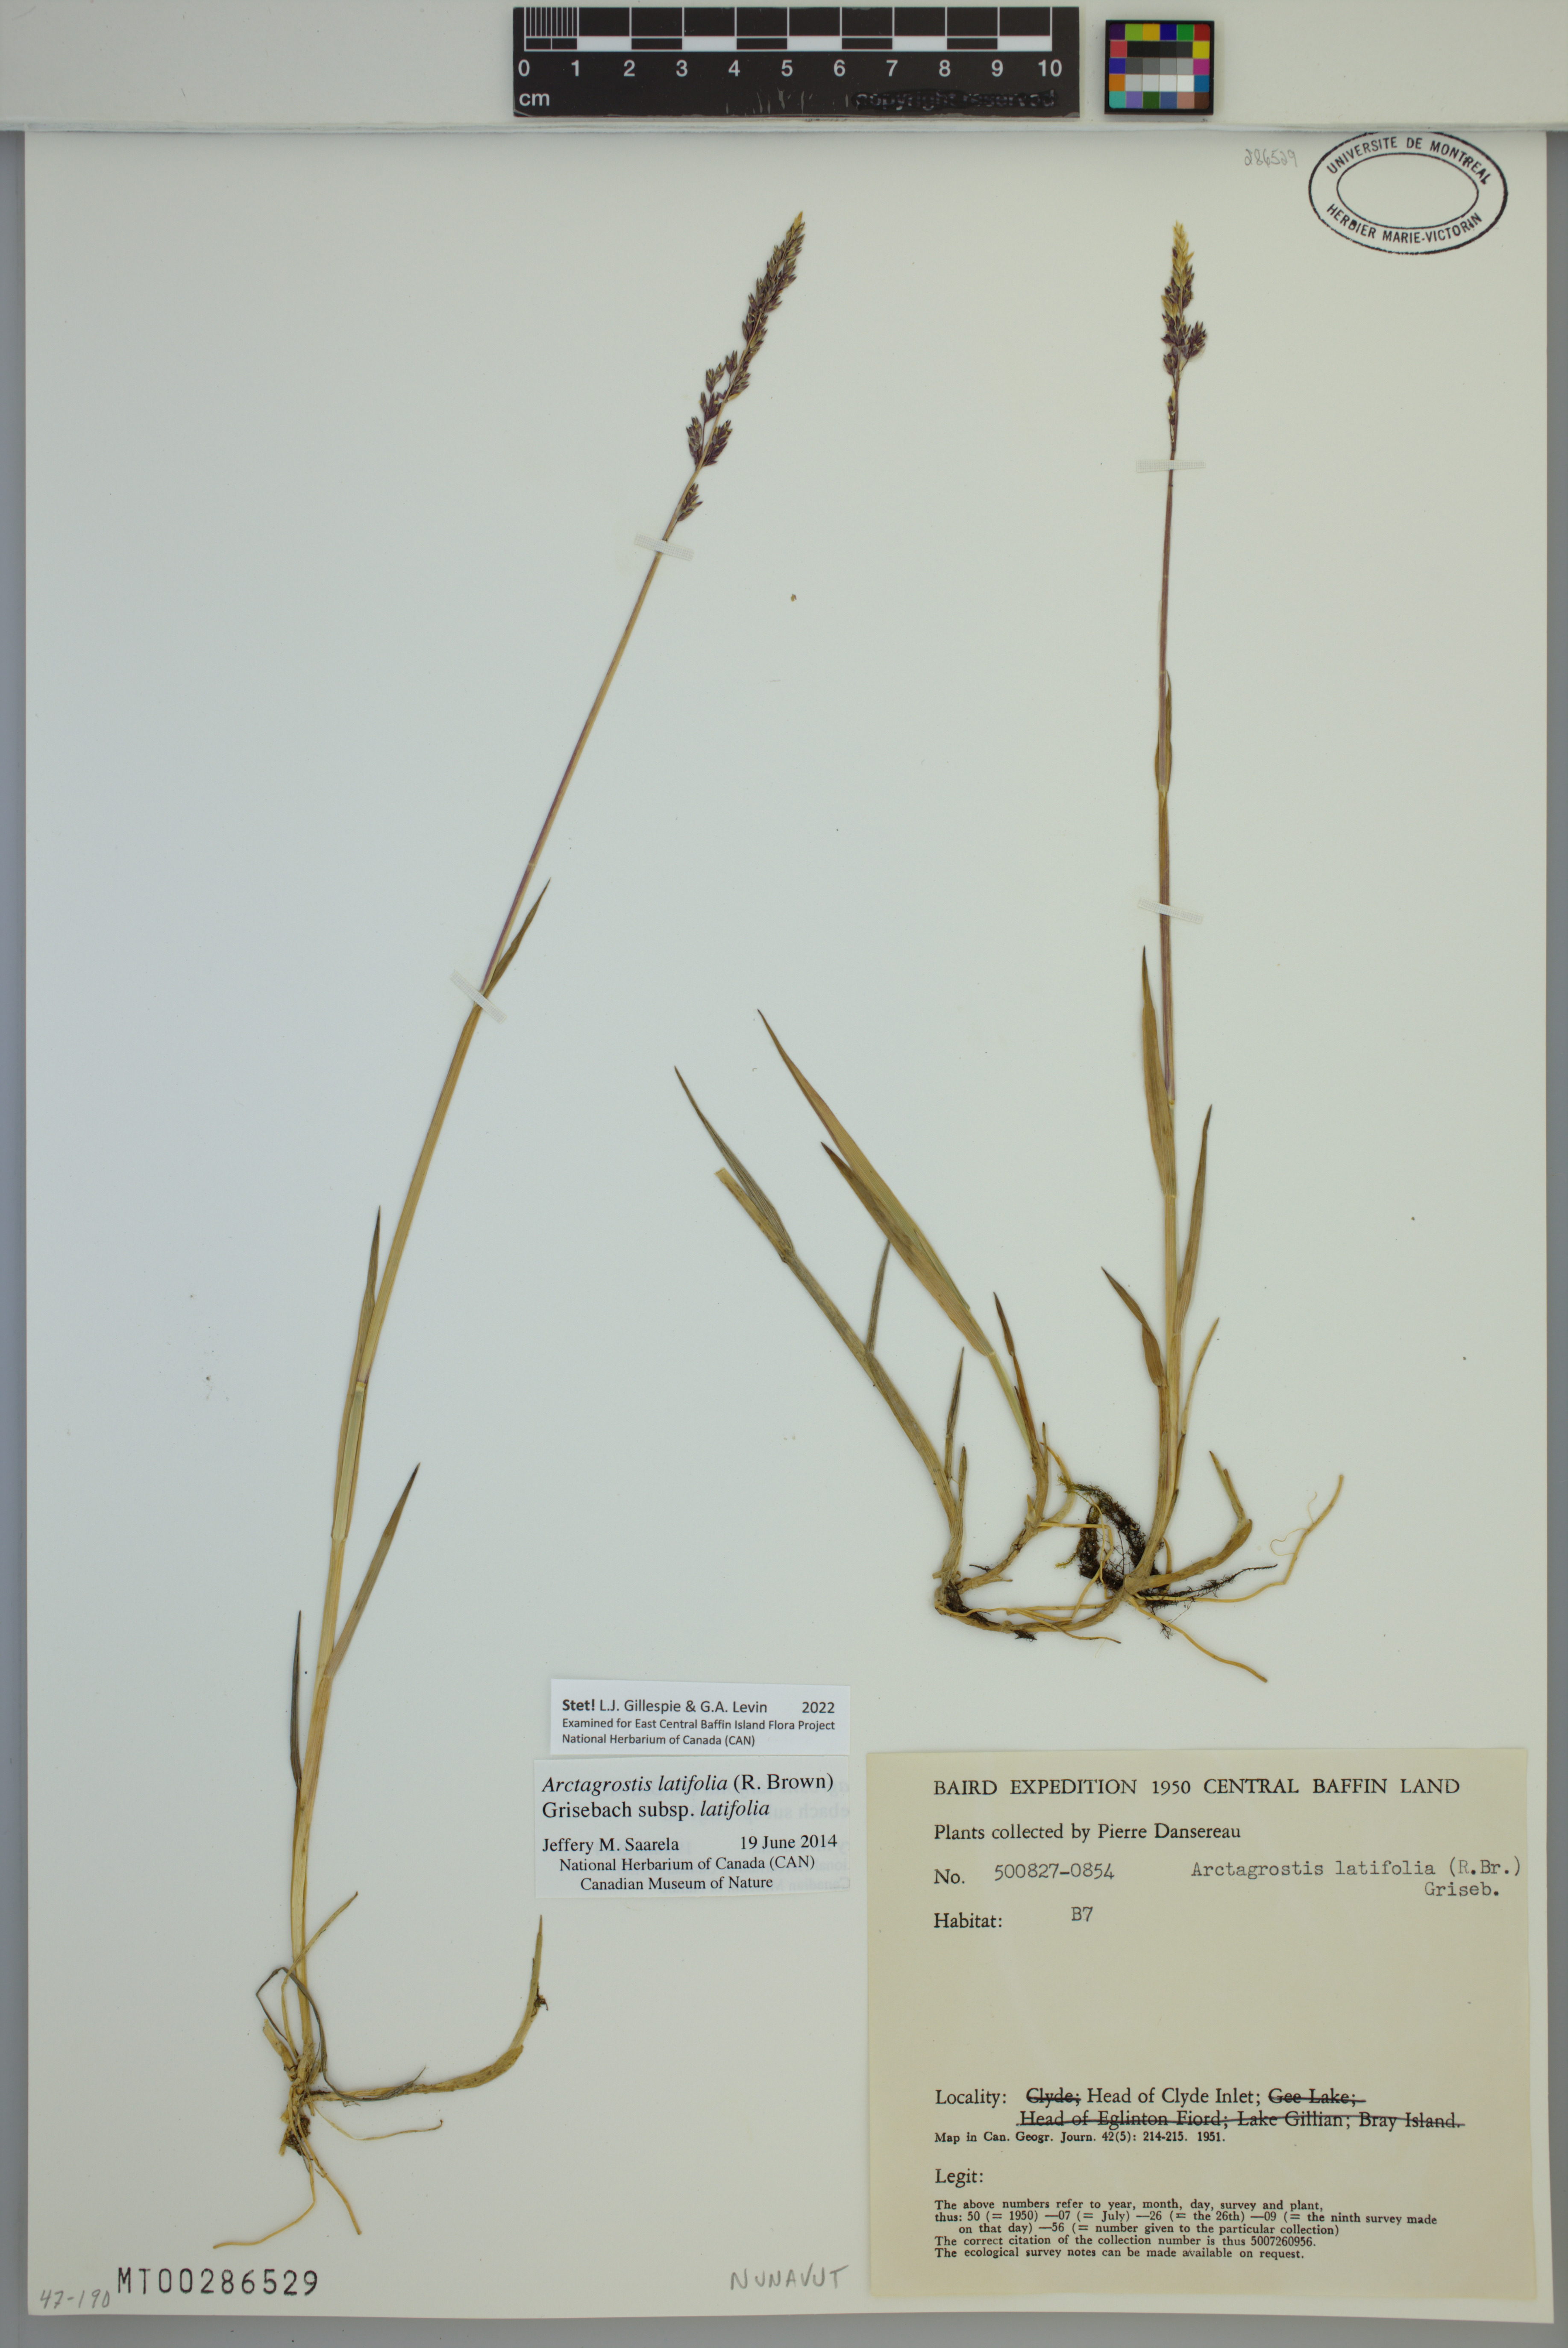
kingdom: Plantae
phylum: Tracheophyta
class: Liliopsida
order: Poales
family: Poaceae
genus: Arctagrostis
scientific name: Arctagrostis latifolia
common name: Arctic grass
